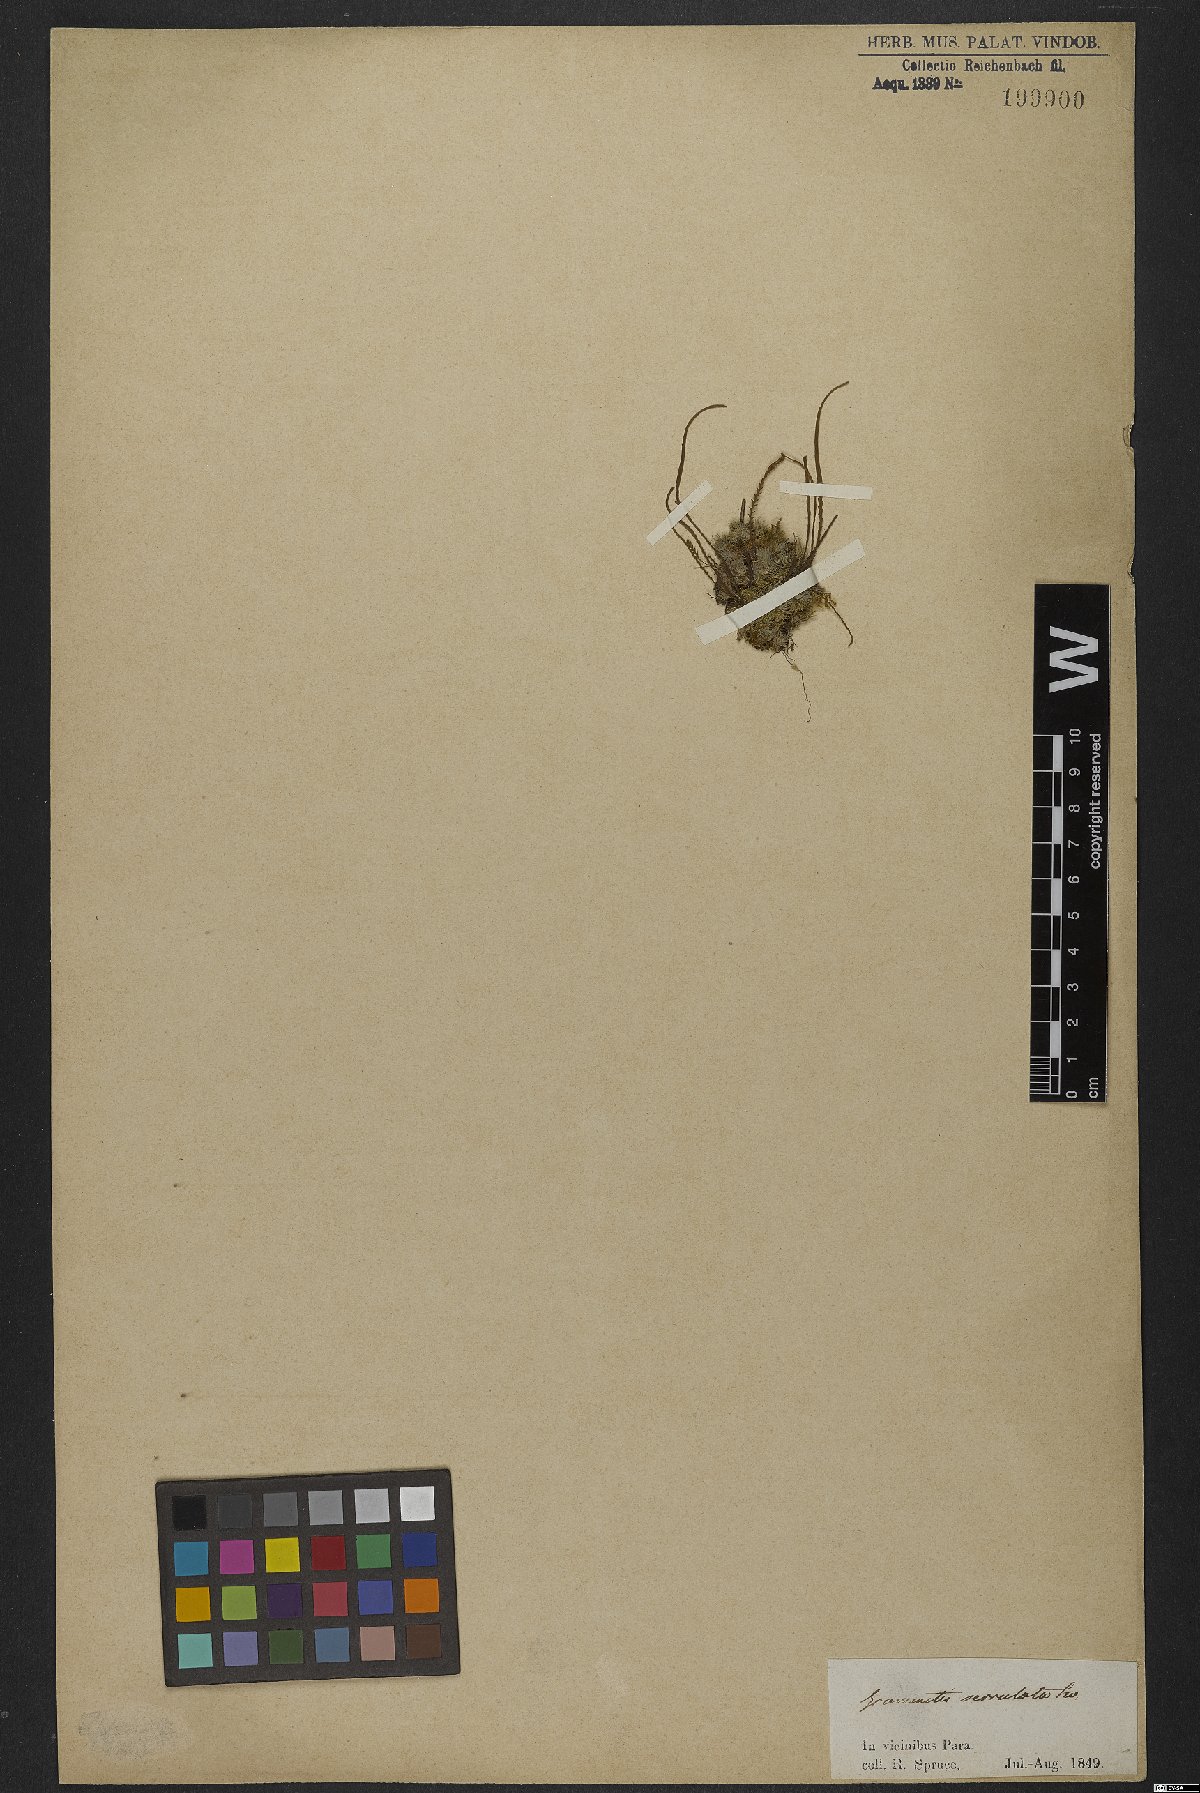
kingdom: Plantae
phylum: Tracheophyta
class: Polypodiopsida
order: Polypodiales
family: Polypodiaceae
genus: Cochlidium
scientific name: Cochlidium serrulatum
